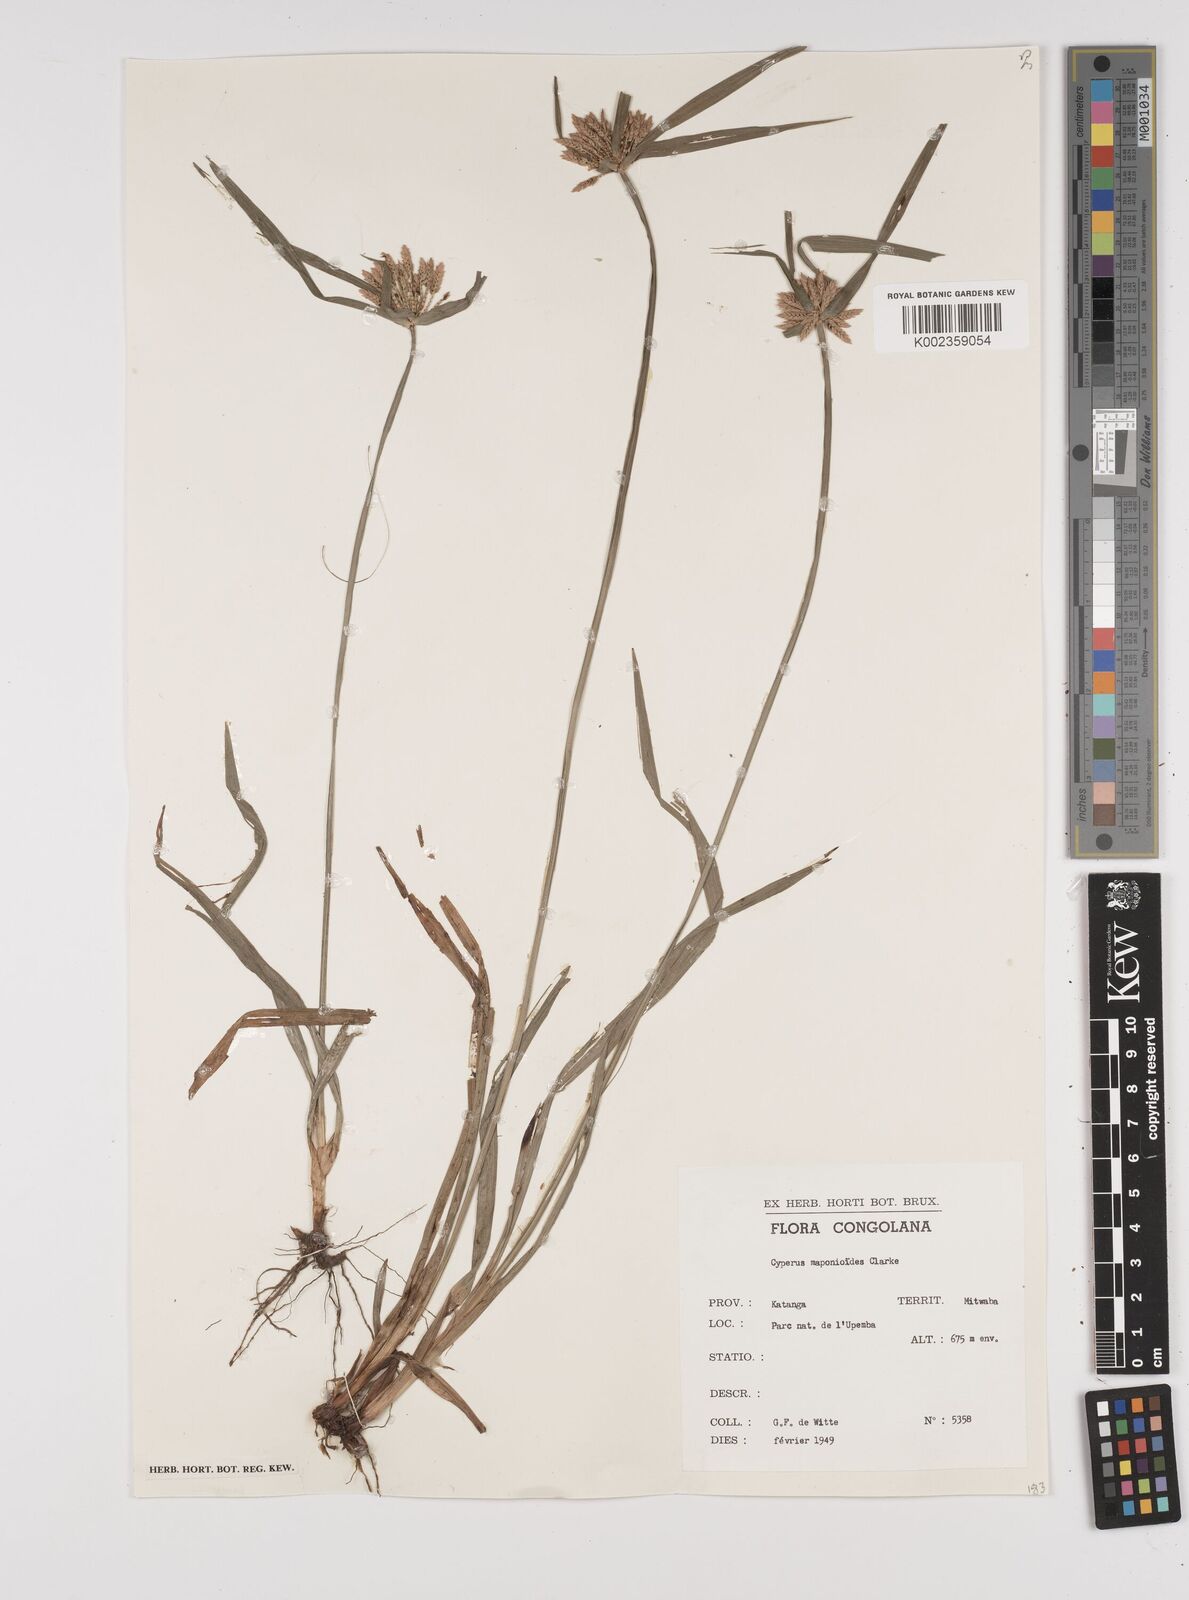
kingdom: Plantae
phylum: Tracheophyta
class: Liliopsida
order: Poales
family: Cyperaceae
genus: Cyperus
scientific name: Cyperus mapanioides
